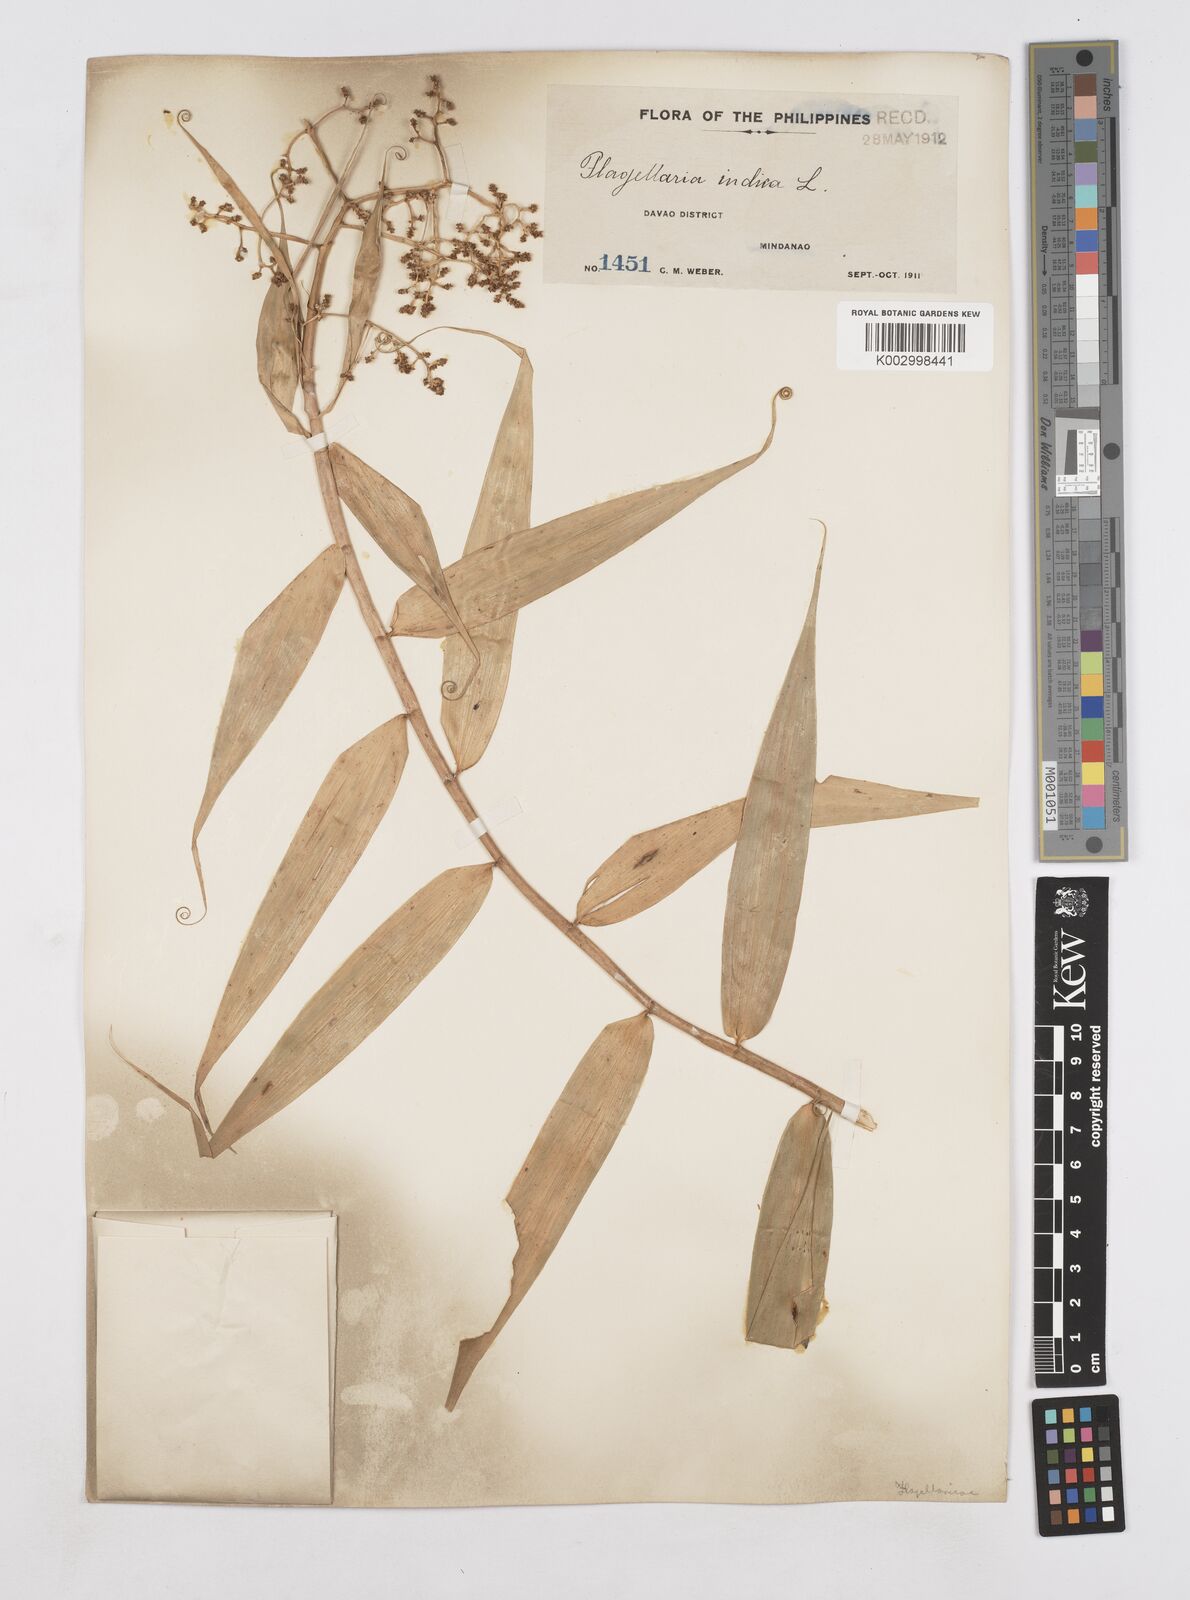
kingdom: Plantae
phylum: Tracheophyta
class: Liliopsida
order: Poales
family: Flagellariaceae
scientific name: Flagellariaceae
